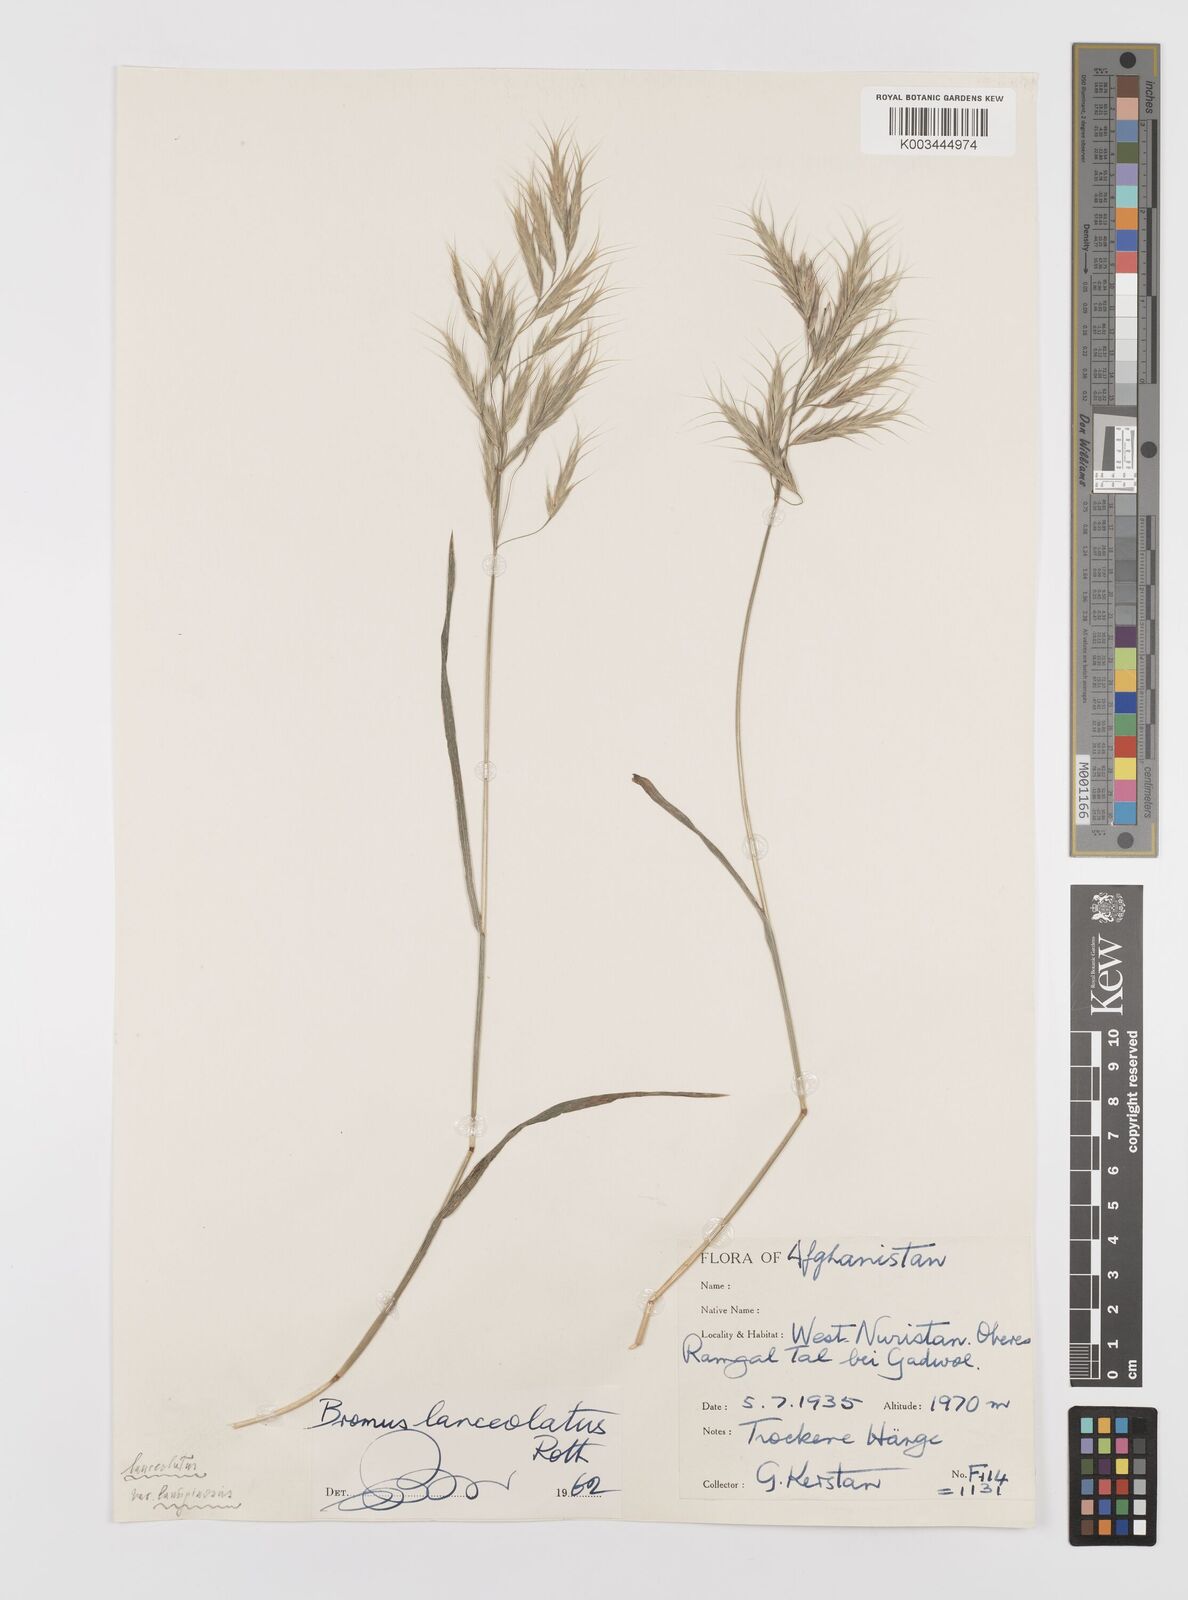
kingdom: Plantae
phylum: Tracheophyta
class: Liliopsida
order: Poales
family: Poaceae
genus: Bromus
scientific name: Bromus lanceolatus
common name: Mediterranean brome
